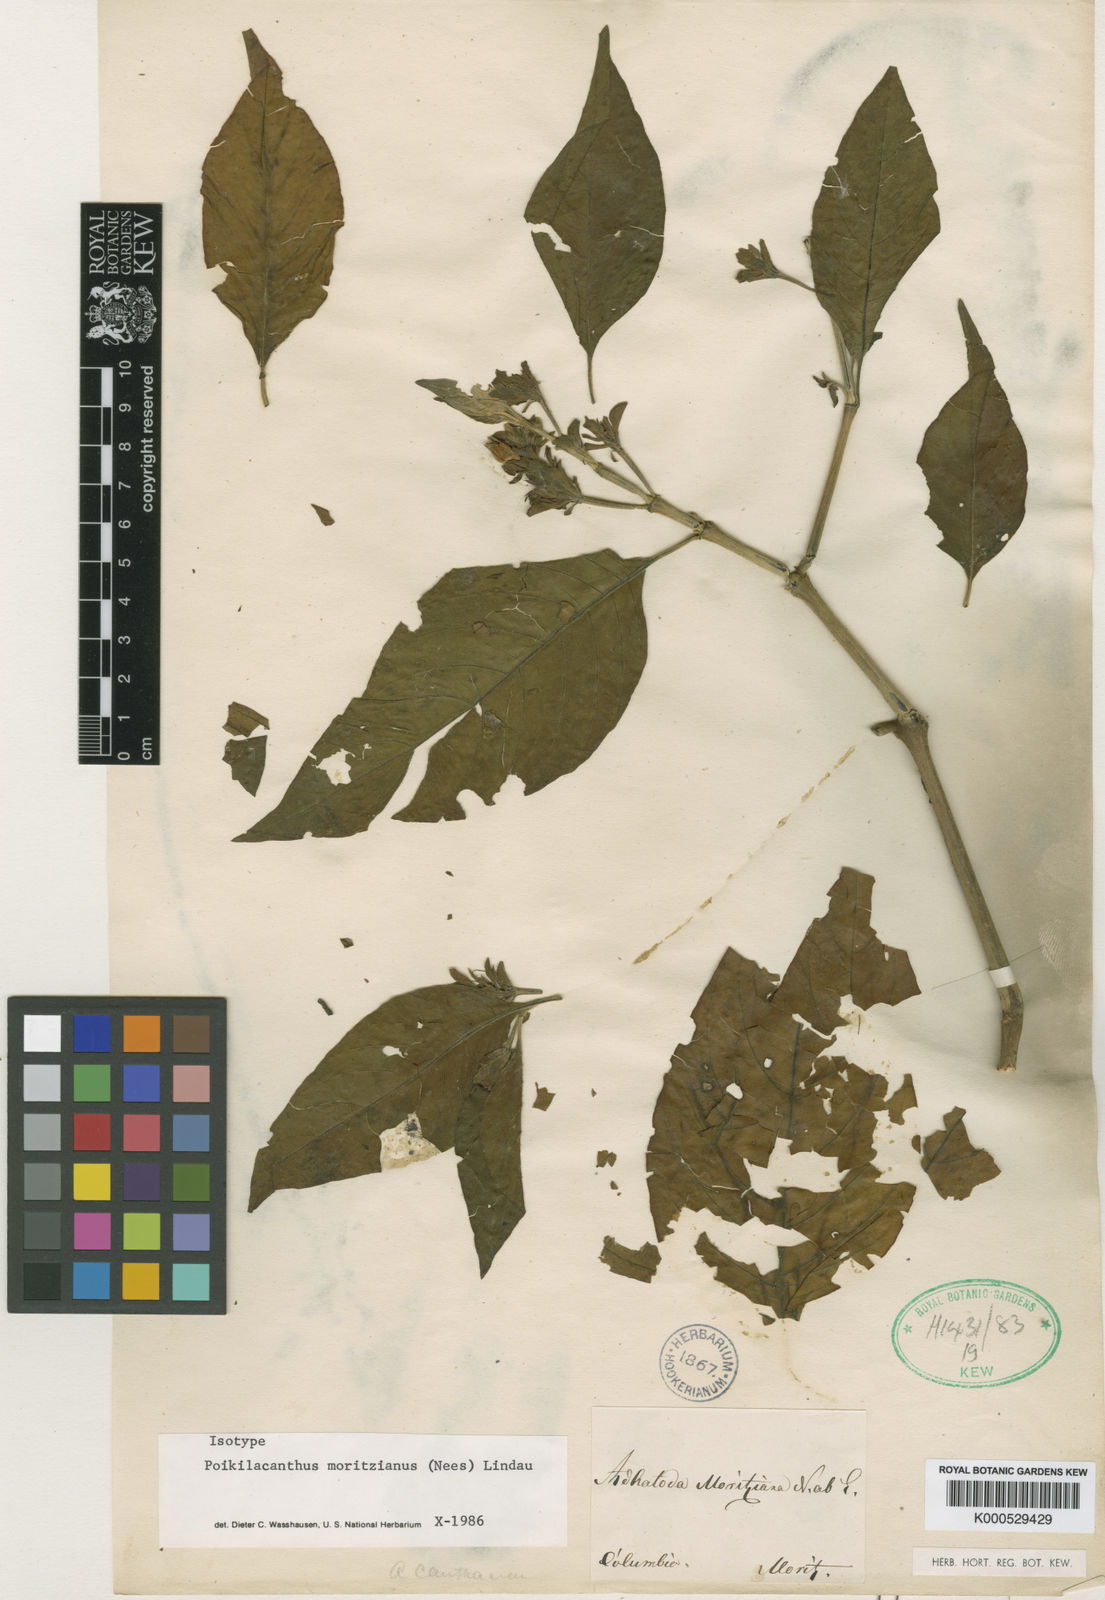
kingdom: Plantae
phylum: Tracheophyta
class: Magnoliopsida
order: Lamiales
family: Acanthaceae
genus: Poikilacanthus
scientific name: Poikilacanthus moritzianus
